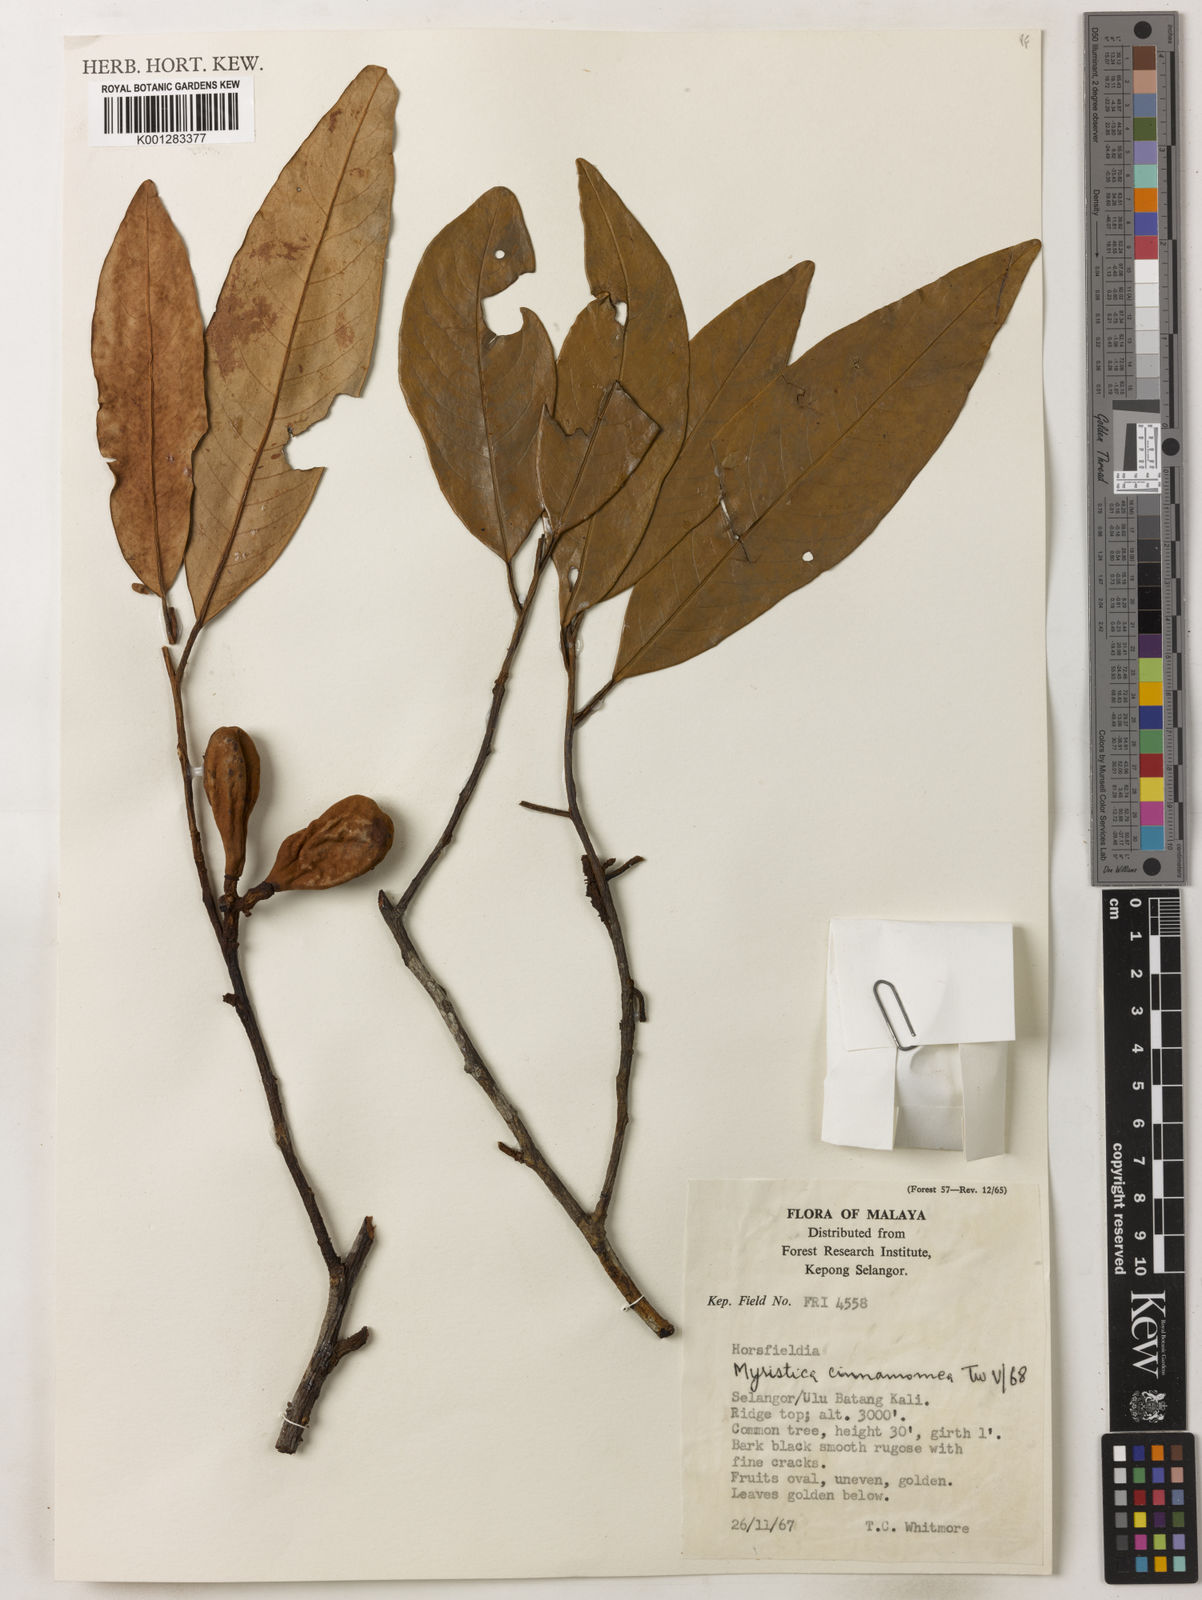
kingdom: Plantae
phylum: Tracheophyta
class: Magnoliopsida
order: Magnoliales
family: Myristicaceae
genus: Myristica
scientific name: Myristica cinnamomea
